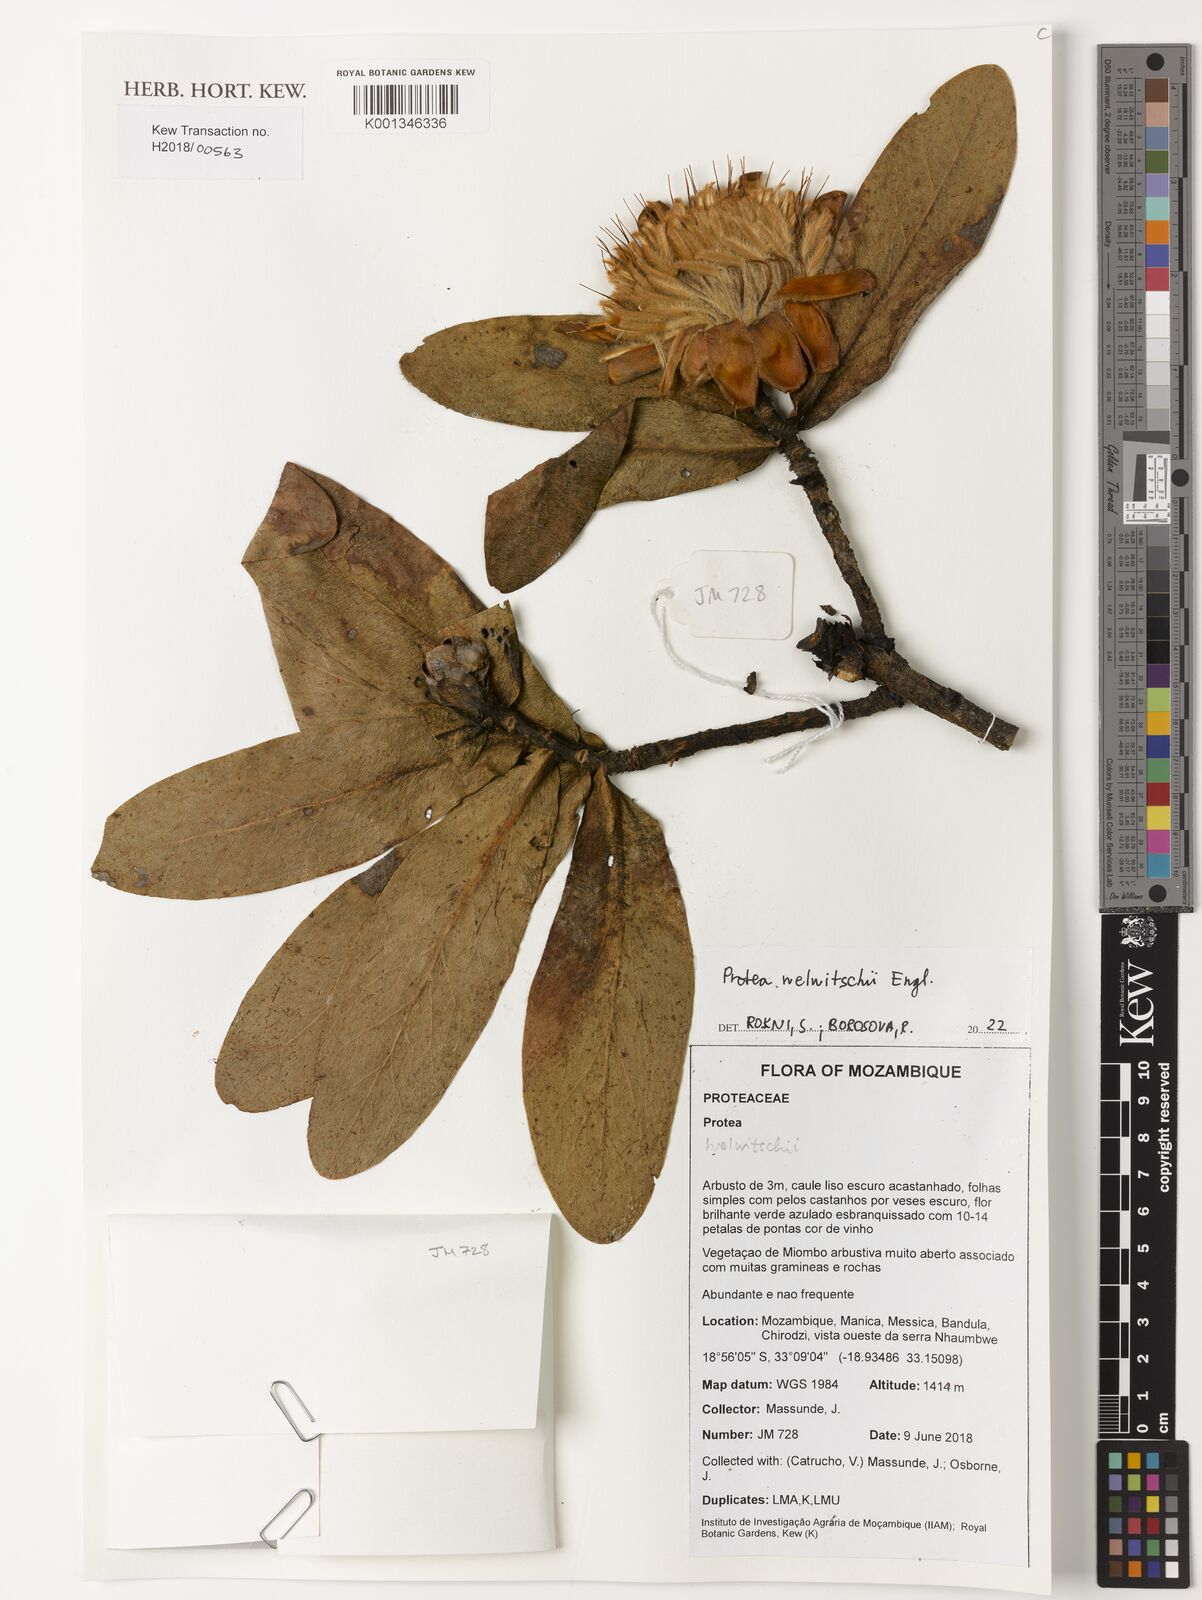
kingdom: Plantae
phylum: Tracheophyta
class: Magnoliopsida
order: Proteales
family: Proteaceae
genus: Protea
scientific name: Protea welwitschii
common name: Cluster-head protea
